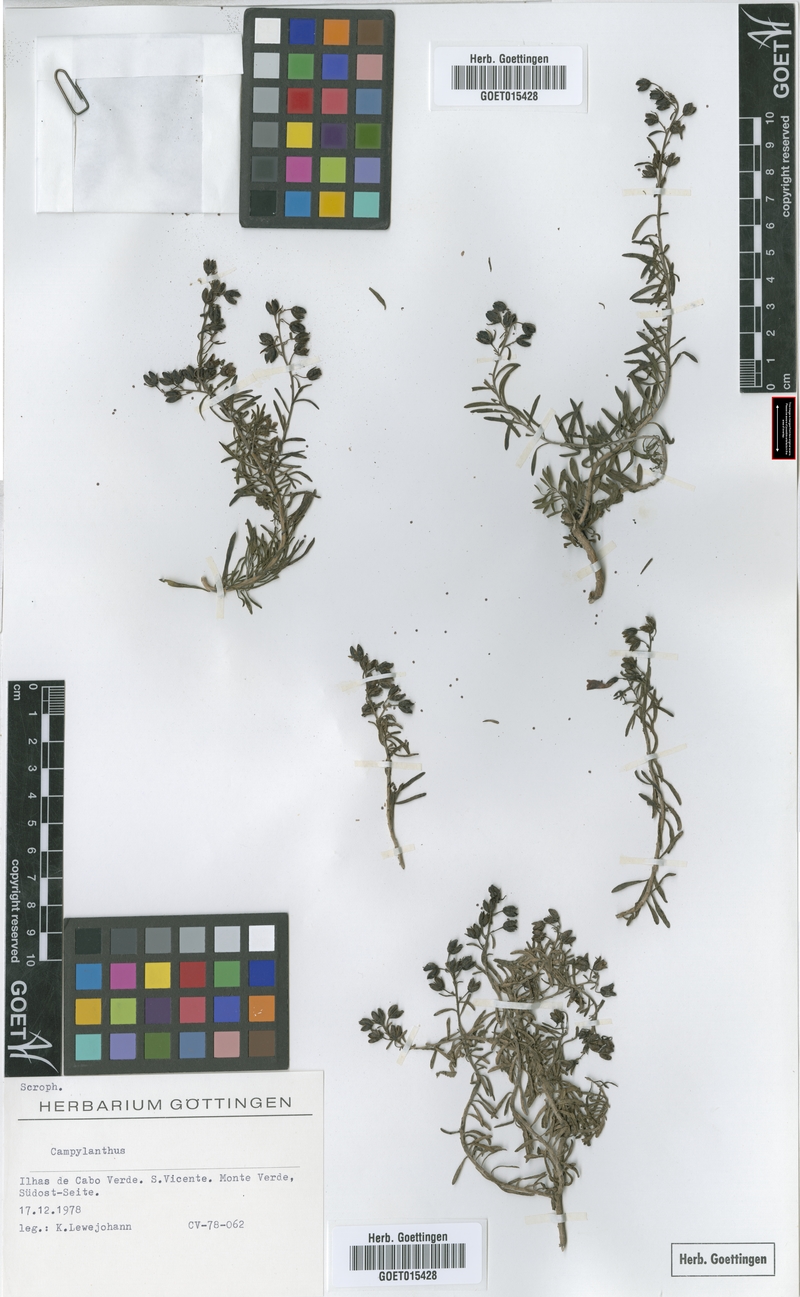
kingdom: Plantae
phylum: Tracheophyta
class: Magnoliopsida
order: Lamiales
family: Plantaginaceae
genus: Campylanthus
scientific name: Campylanthus
